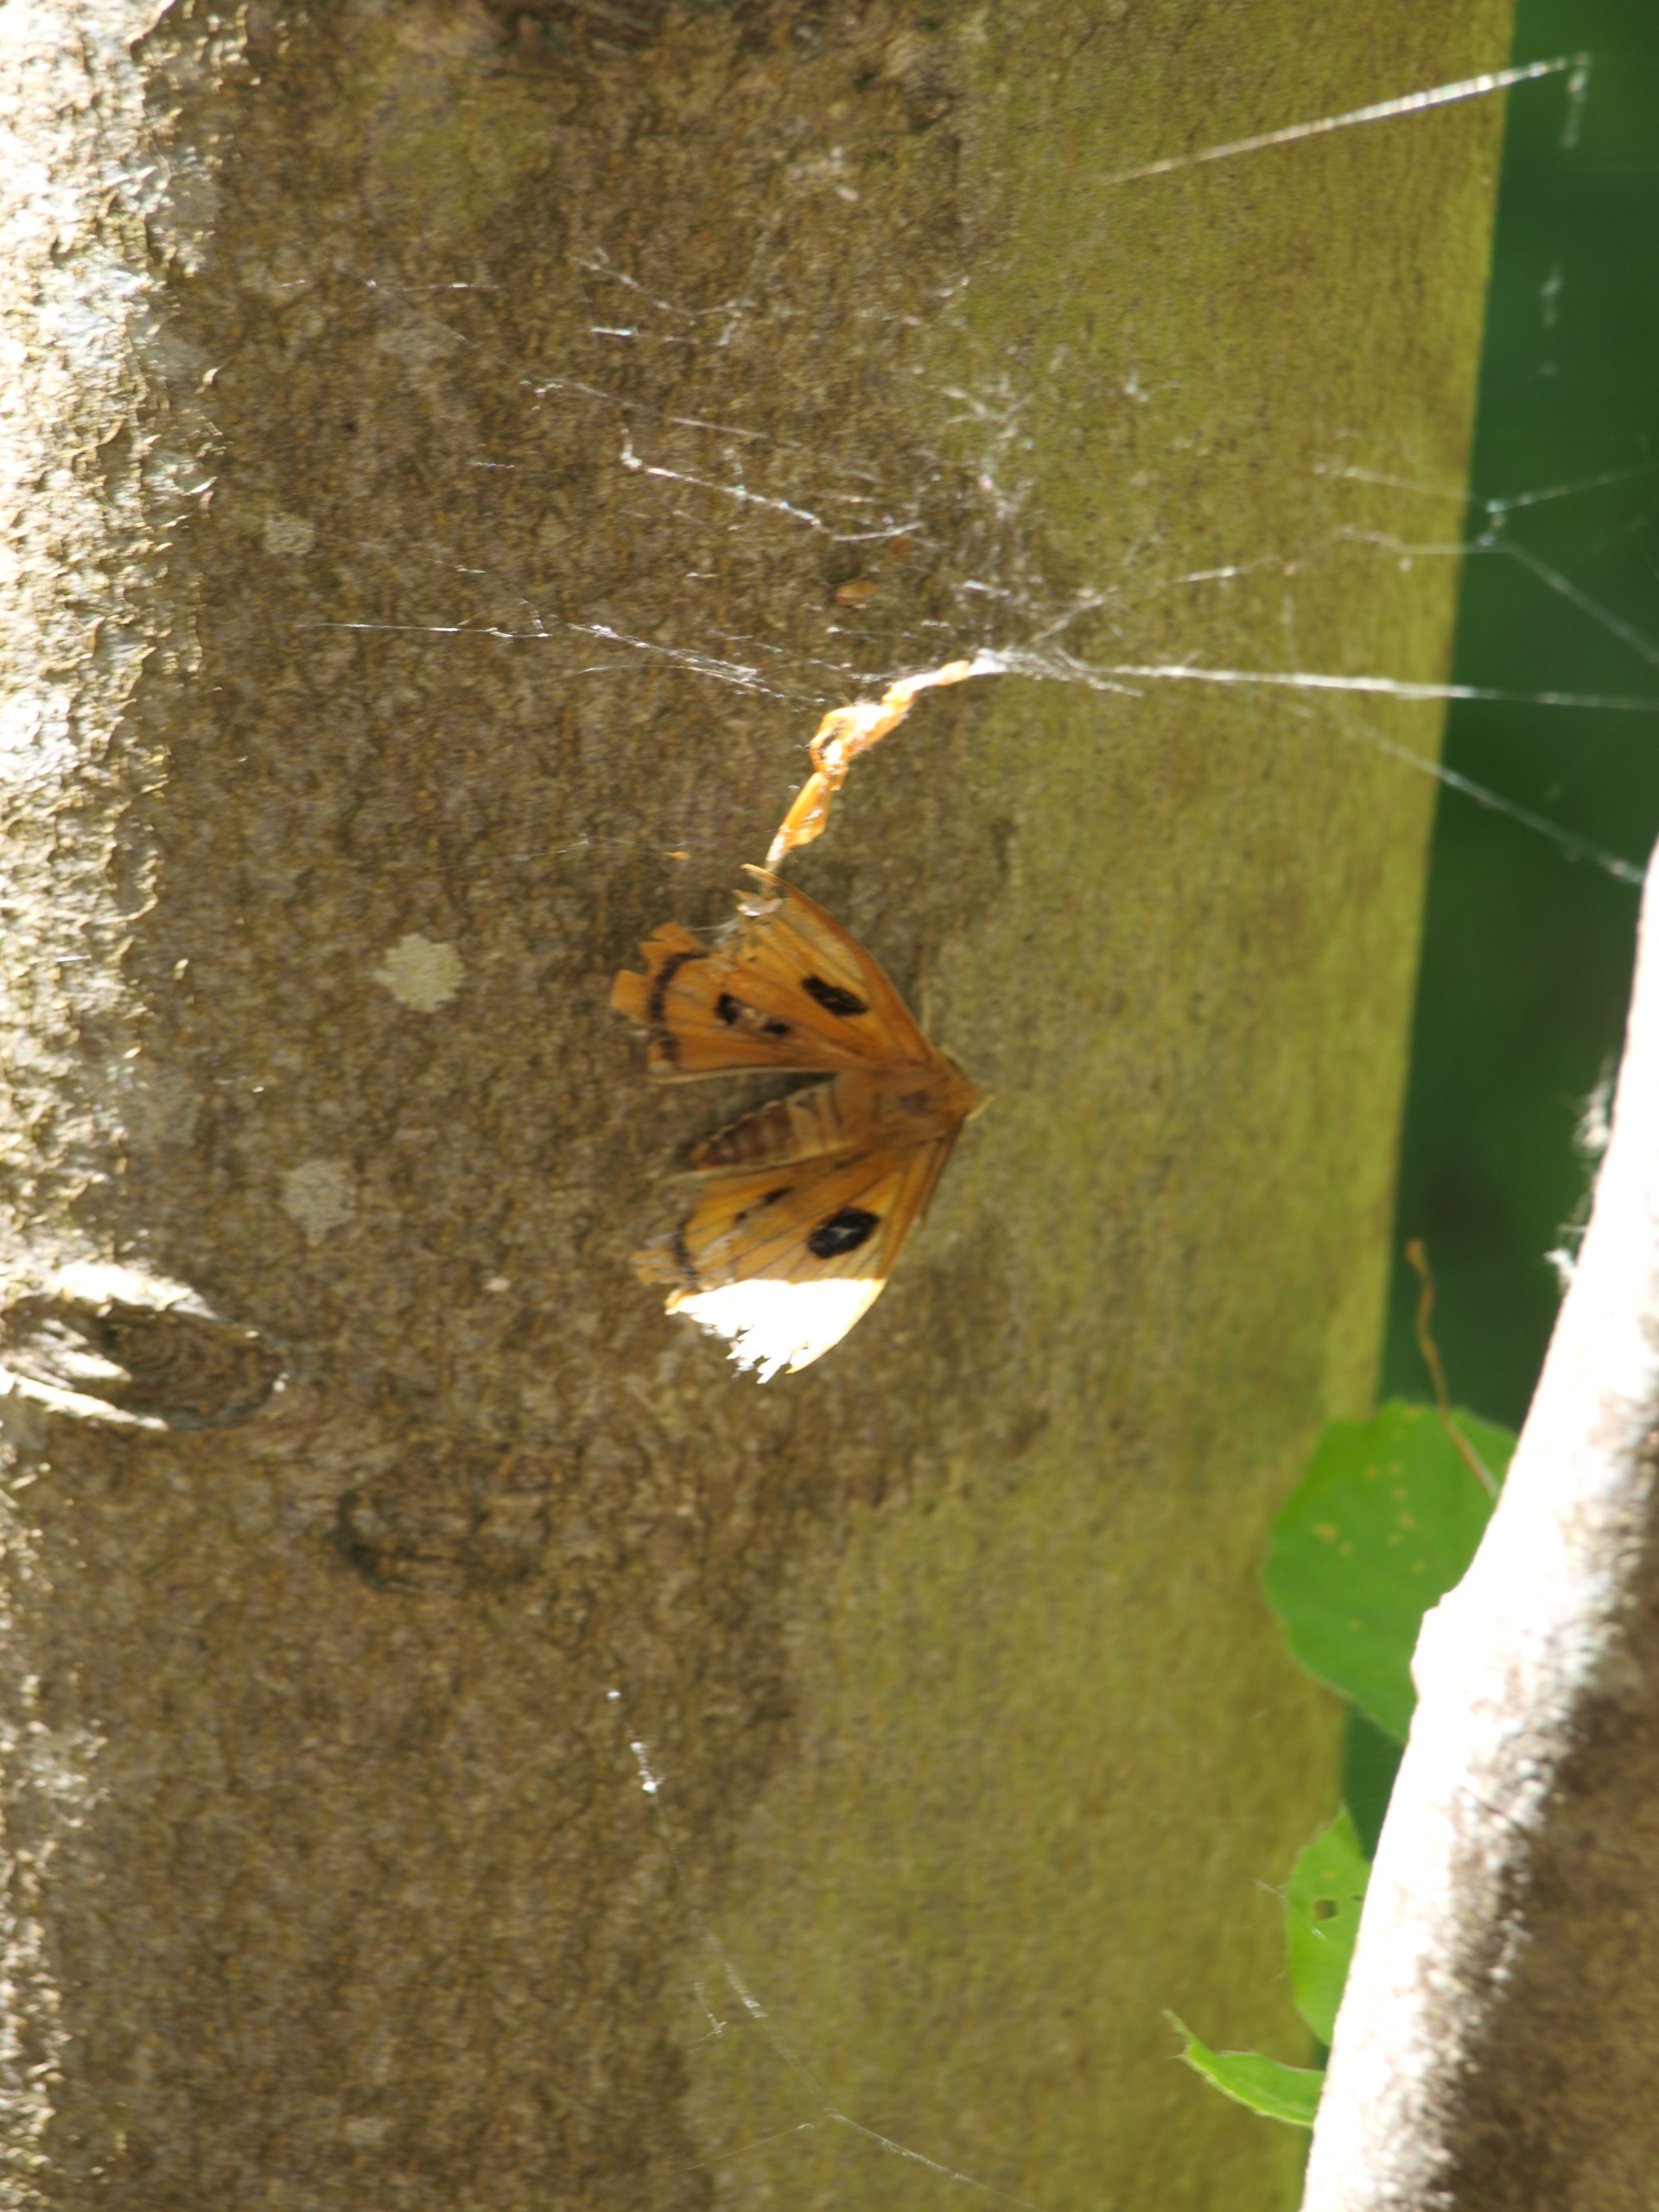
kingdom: Animalia
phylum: Arthropoda
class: Insecta
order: Lepidoptera
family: Saturniidae
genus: Aglia
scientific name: Aglia tau
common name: Sømplet
